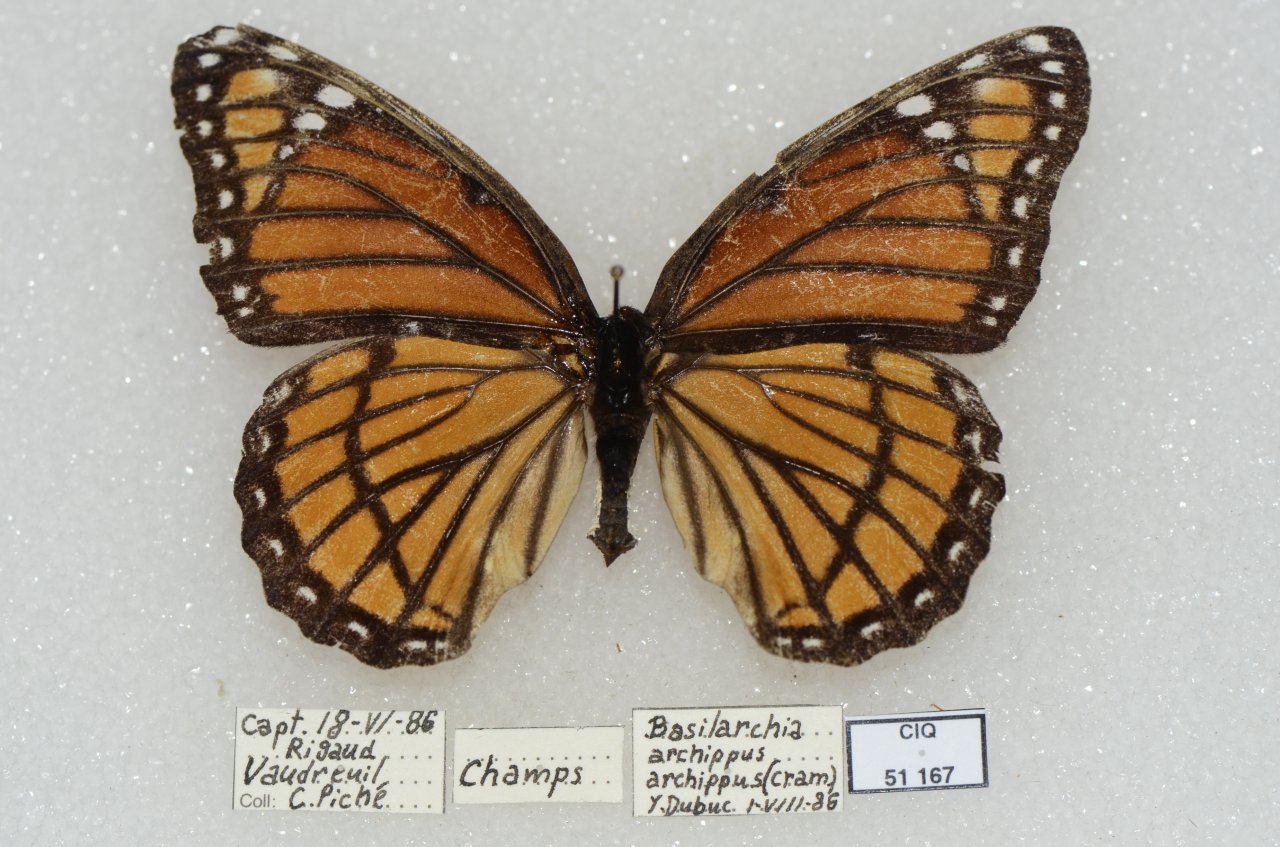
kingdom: Animalia
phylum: Arthropoda
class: Insecta
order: Lepidoptera
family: Nymphalidae
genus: Limenitis
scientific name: Limenitis archippus
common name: Viceroy
